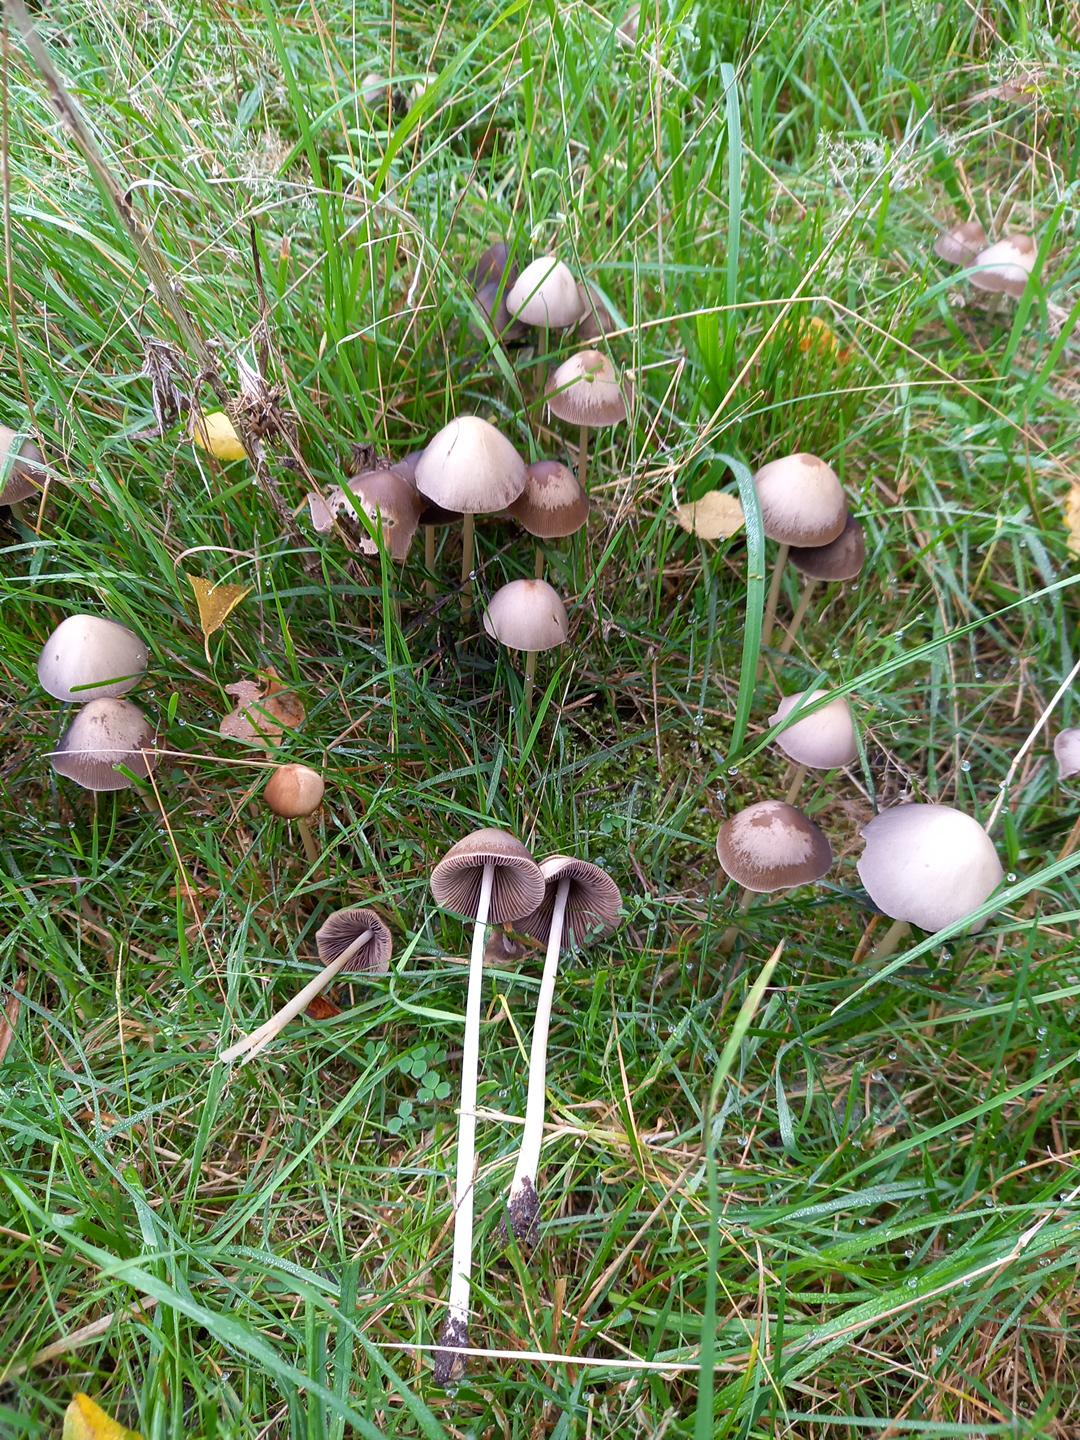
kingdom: Fungi
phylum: Basidiomycota
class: Agaricomycetes
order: Agaricales
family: Psathyrellaceae
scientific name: Psathyrellaceae
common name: mørkhatfamilien
